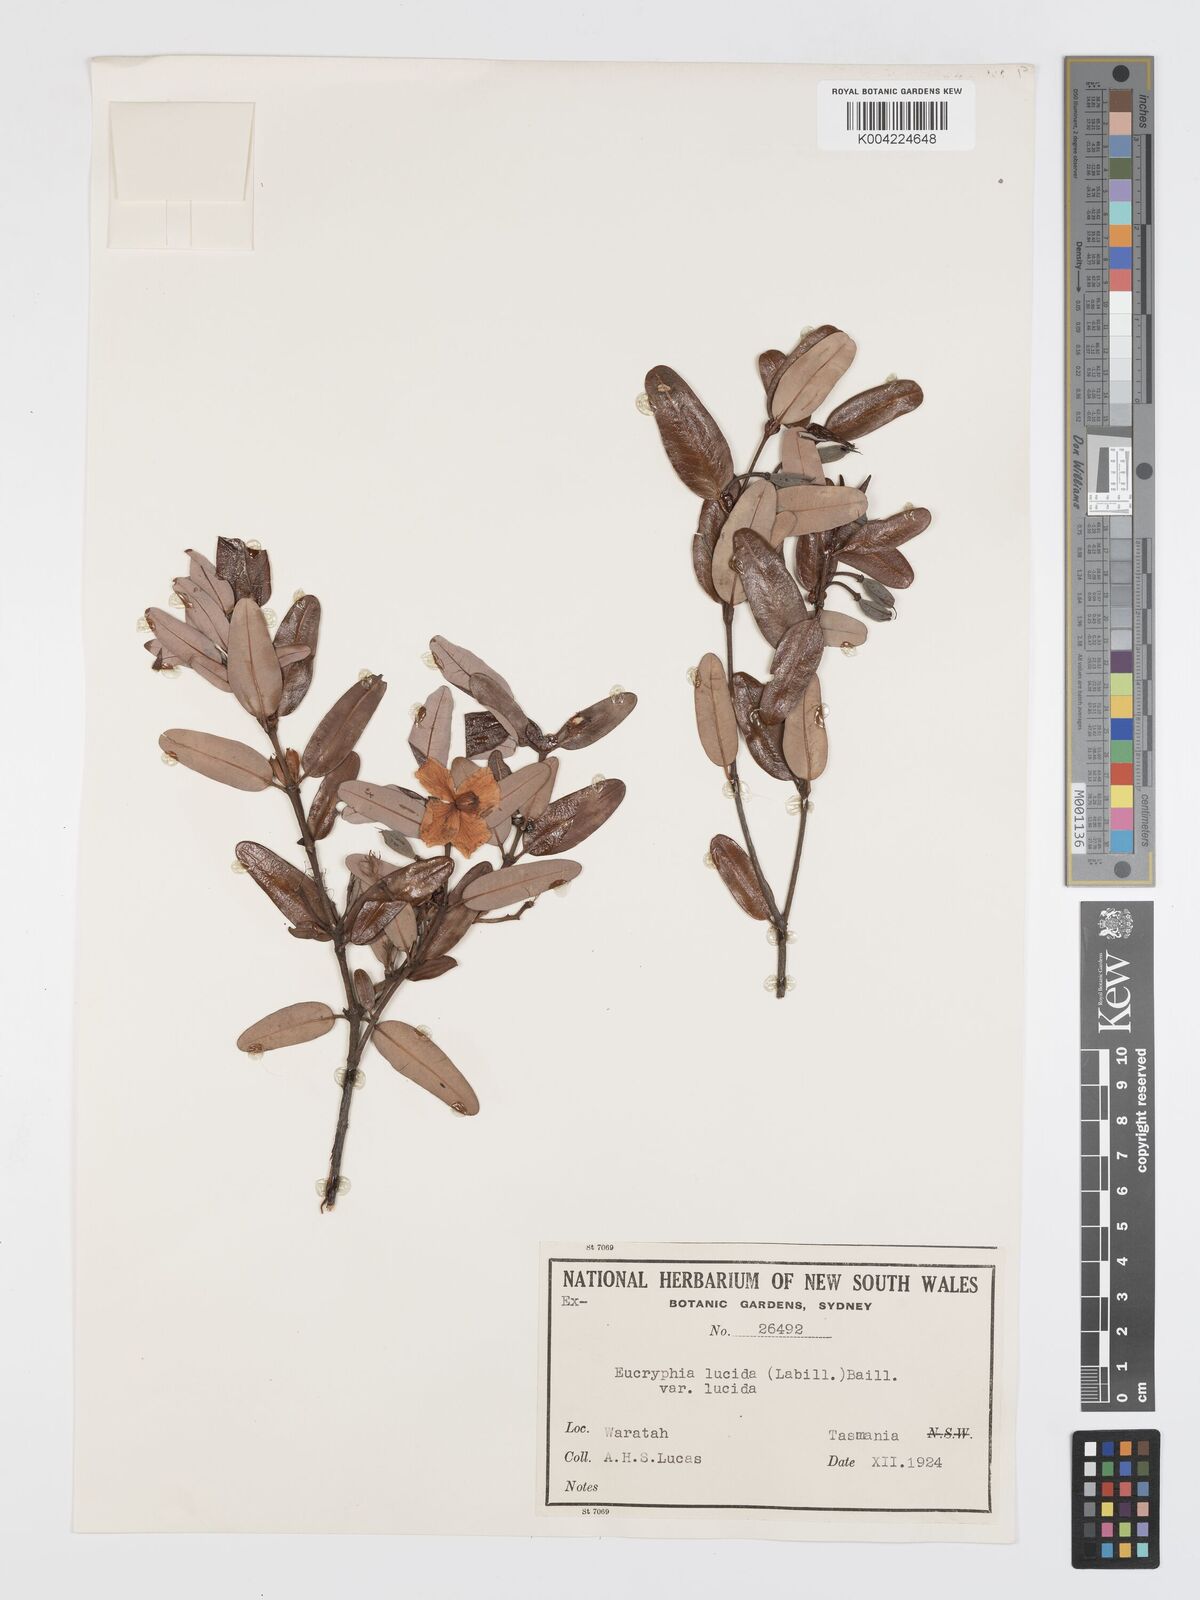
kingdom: Plantae
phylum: Tracheophyta
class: Magnoliopsida
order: Oxalidales
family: Cunoniaceae
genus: Eucryphia
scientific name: Eucryphia lucida
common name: Leatherwood
